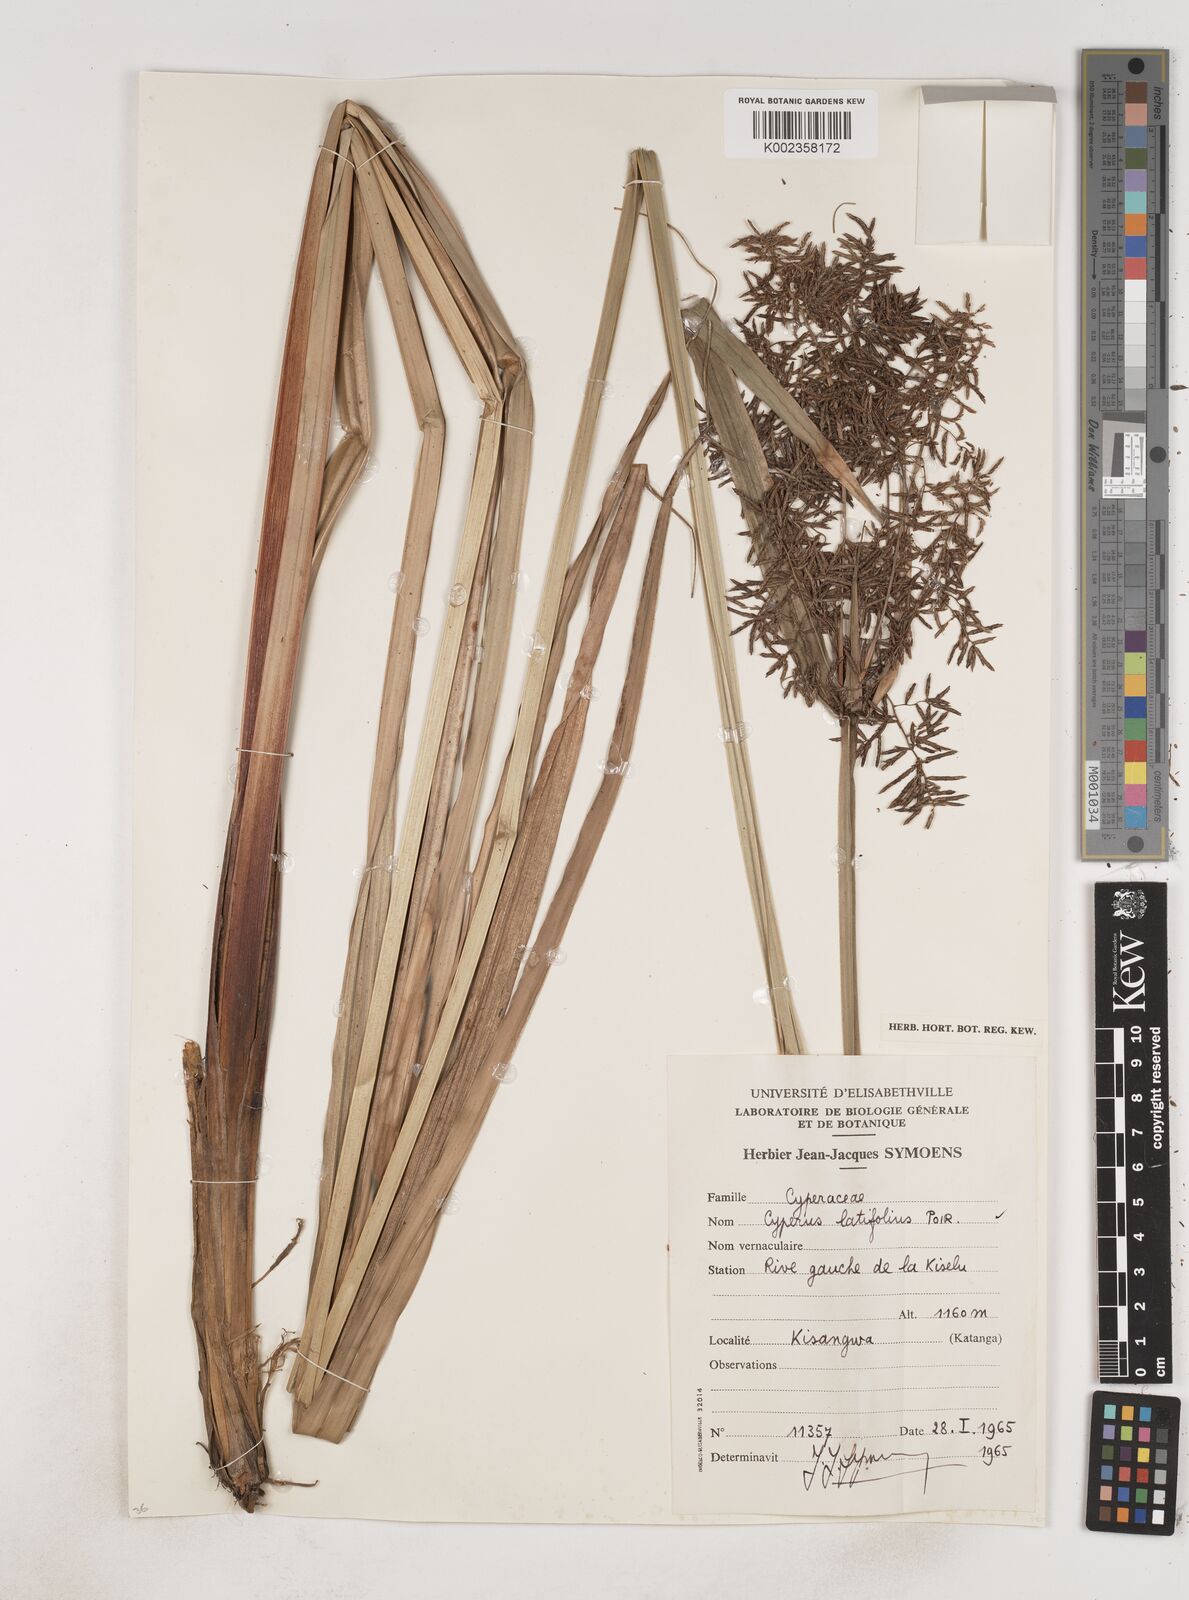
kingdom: Plantae
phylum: Tracheophyta
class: Liliopsida
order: Poales
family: Cyperaceae
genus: Cyperus
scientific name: Cyperus latifolius
